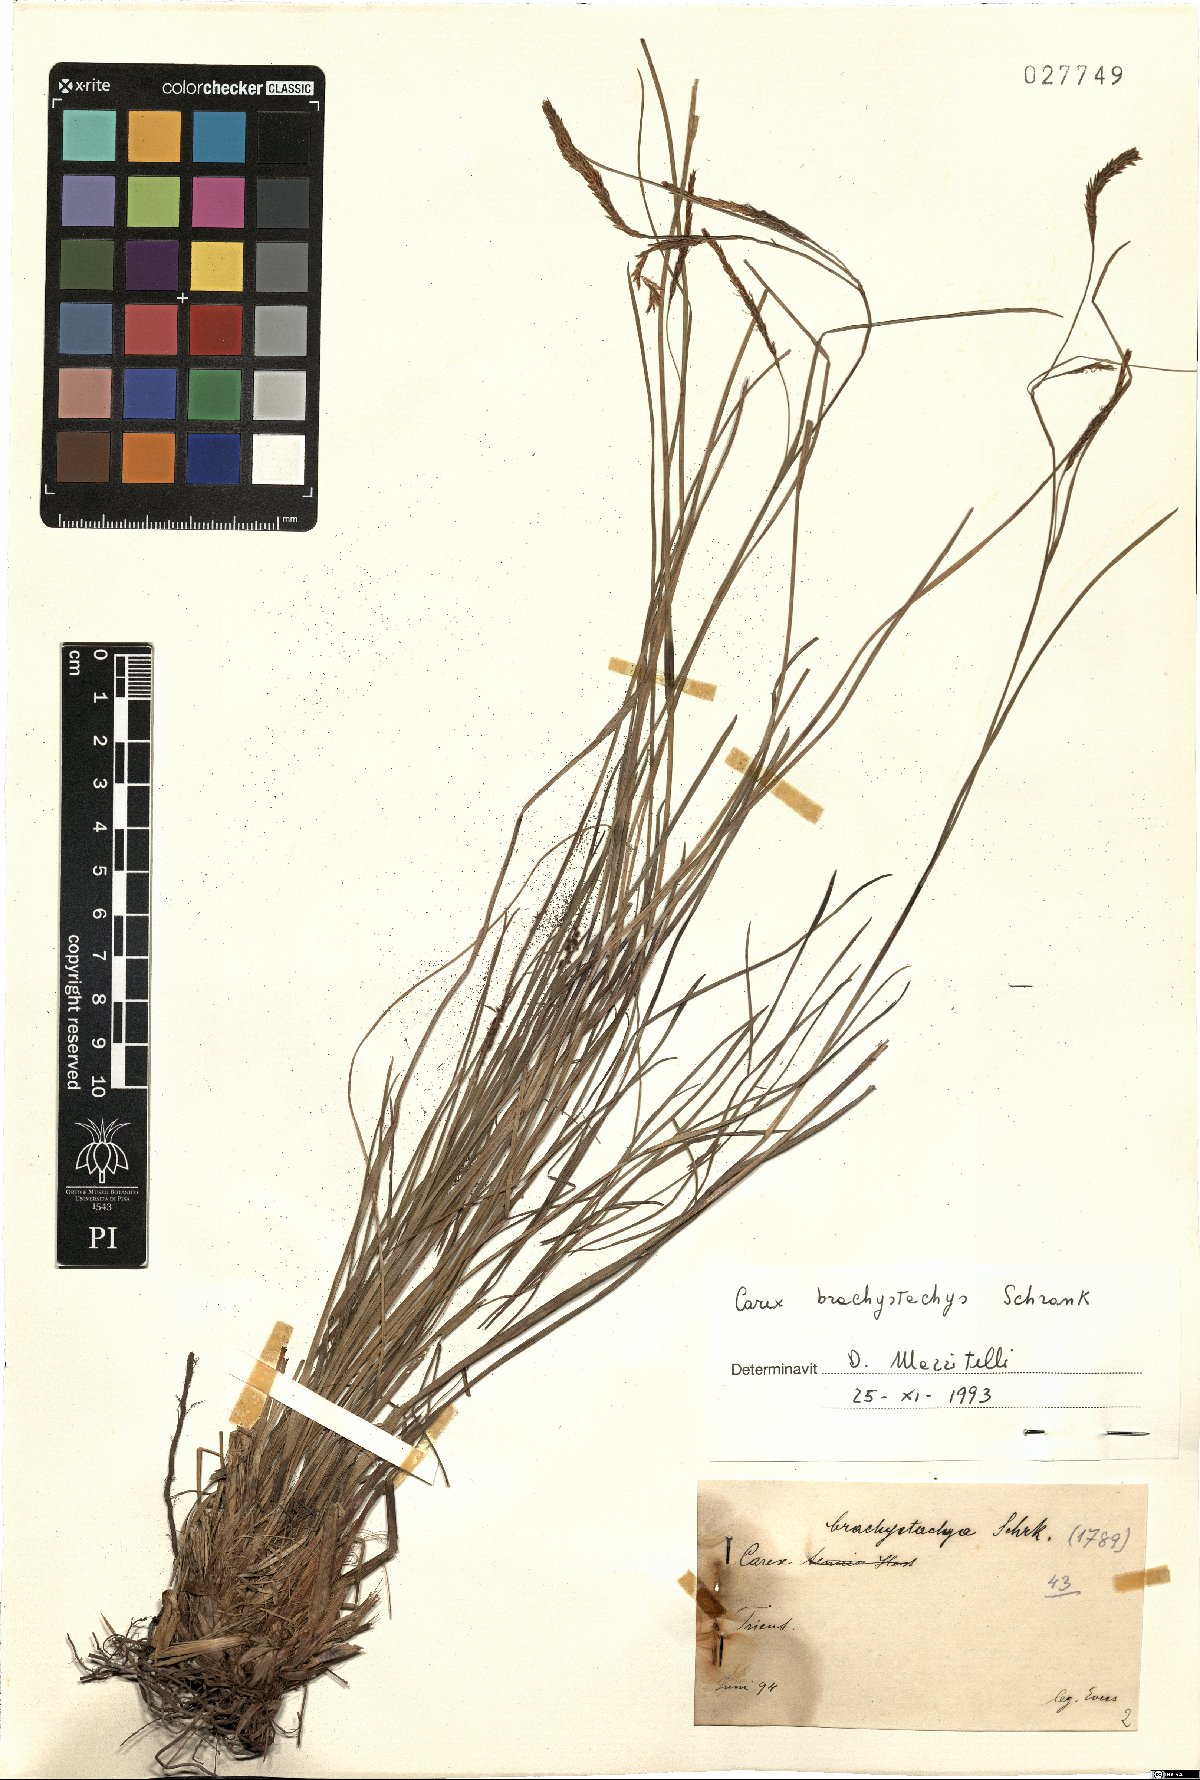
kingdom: Plantae
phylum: Tracheophyta
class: Liliopsida
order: Poales
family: Cyperaceae
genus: Carex
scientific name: Carex brachystachys
